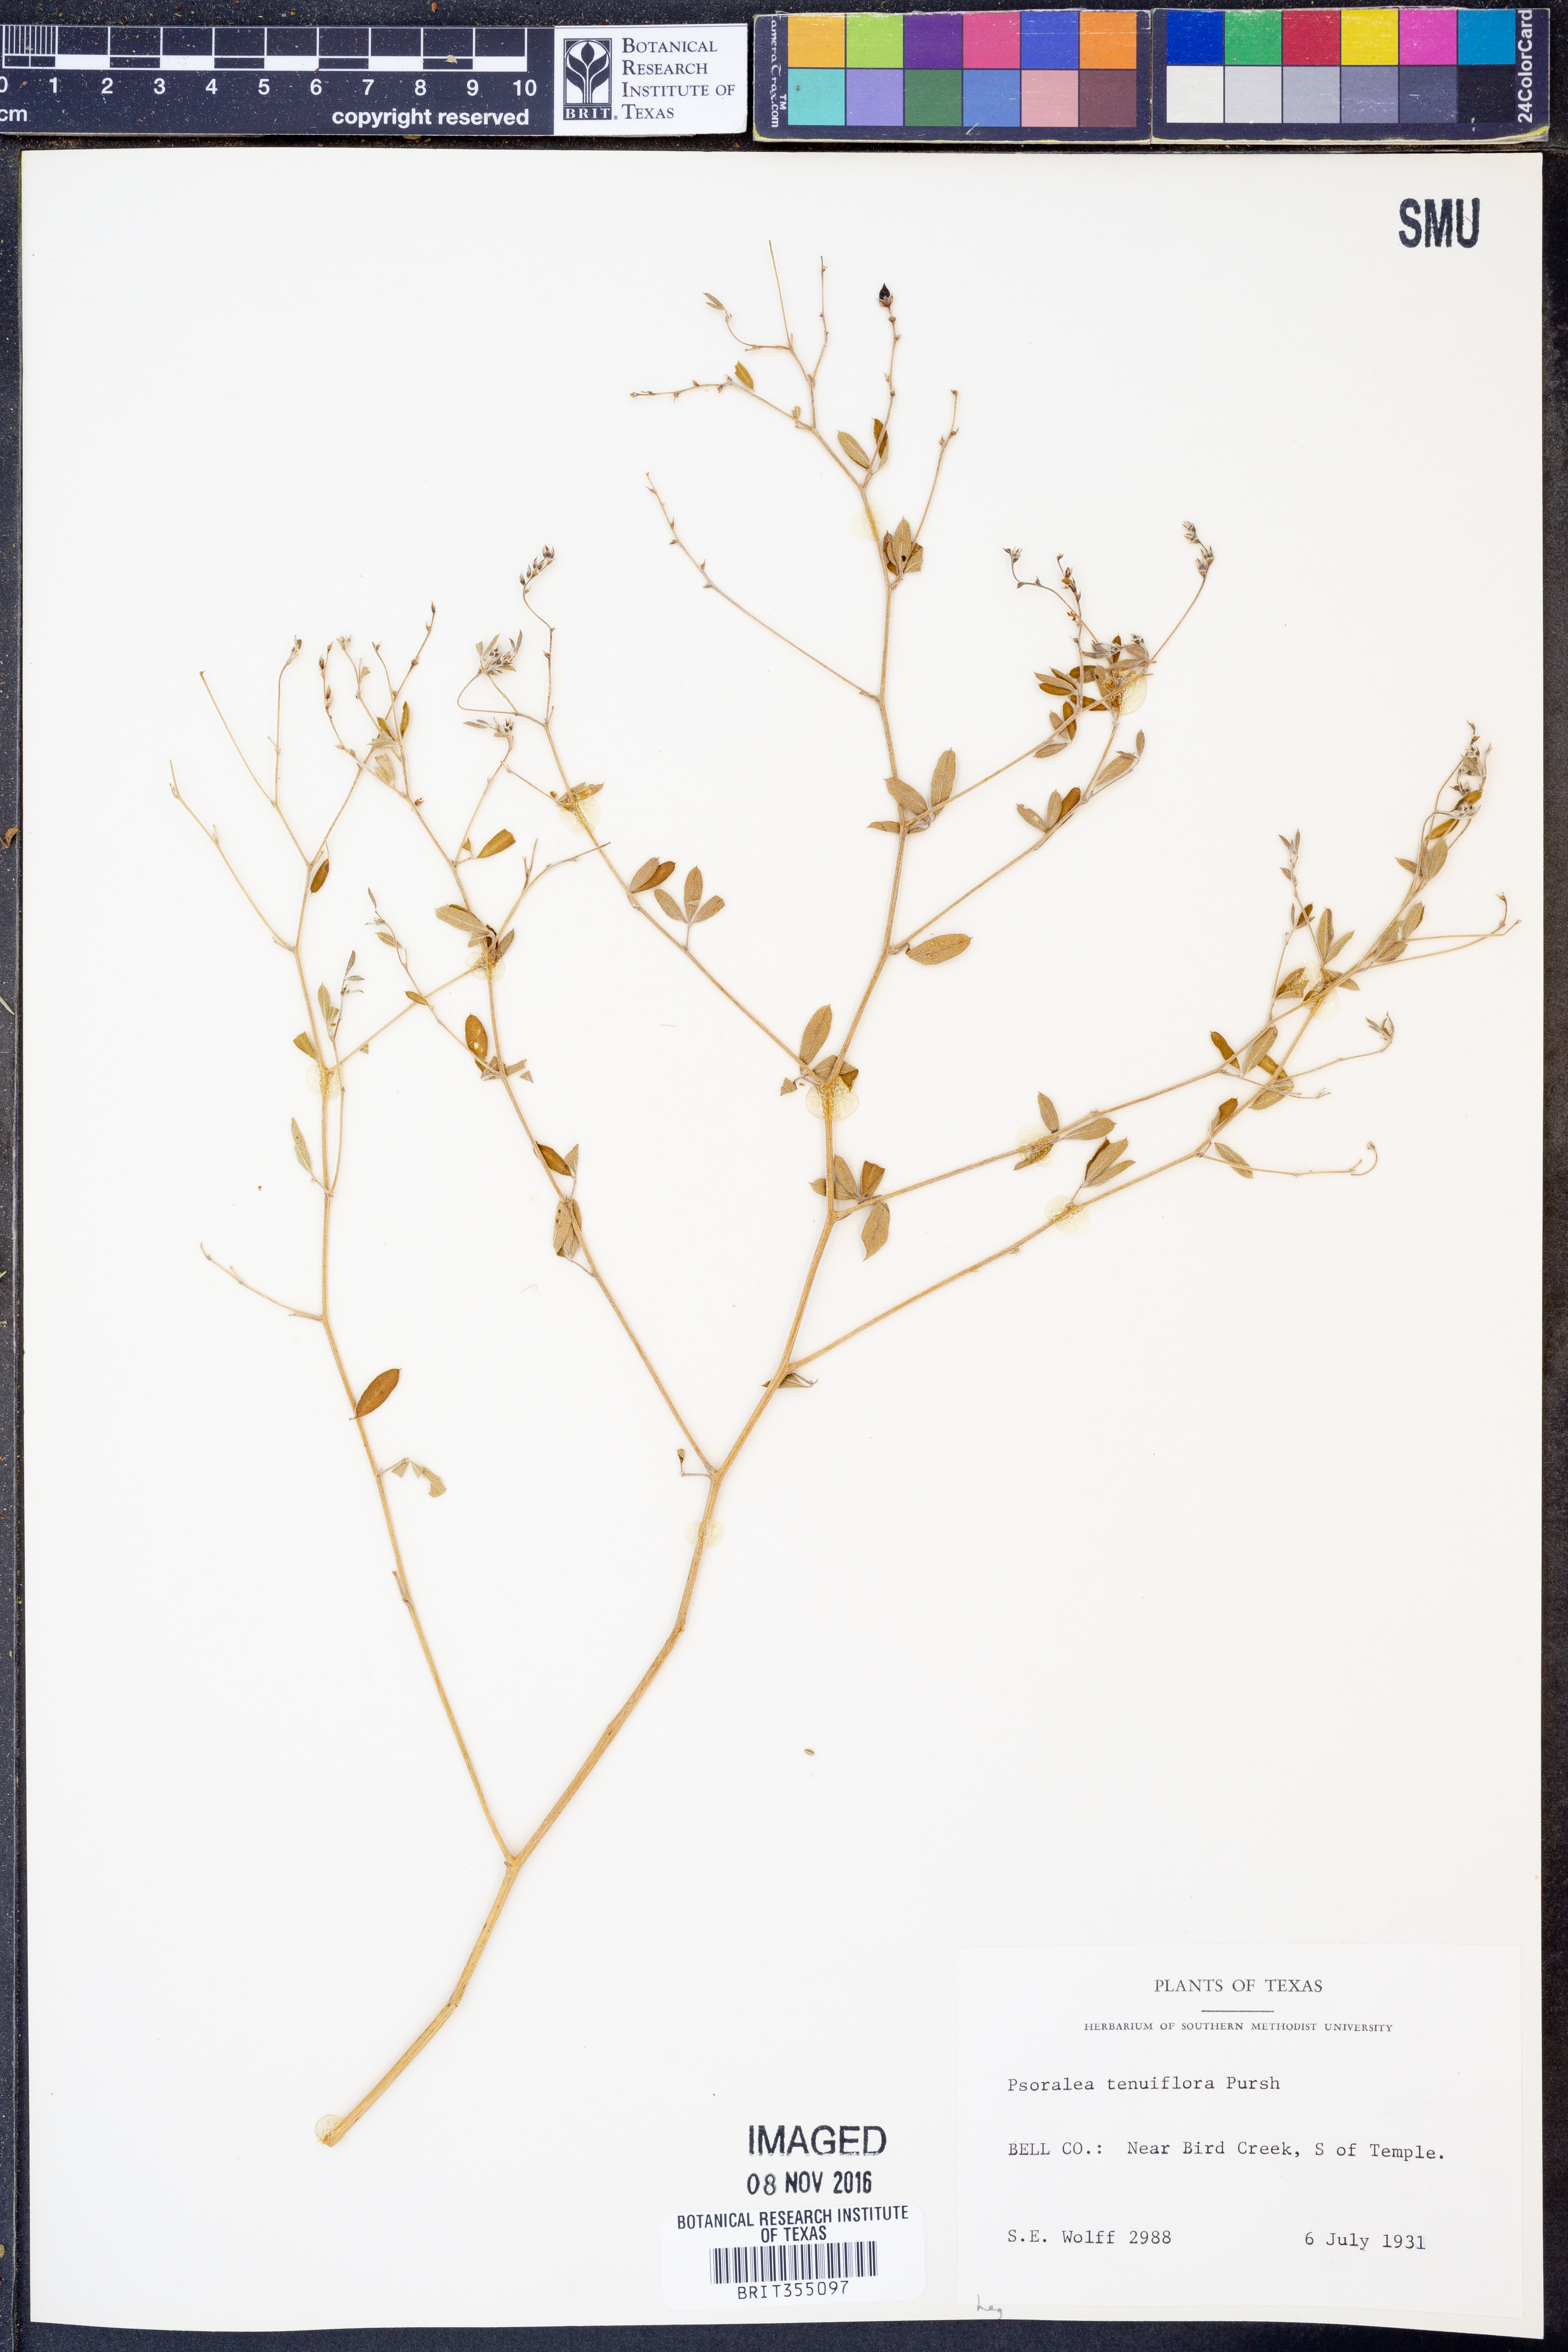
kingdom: Plantae
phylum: Tracheophyta
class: Magnoliopsida
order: Fabales
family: Fabaceae
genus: Pediomelum
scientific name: Pediomelum tenuiflorum
